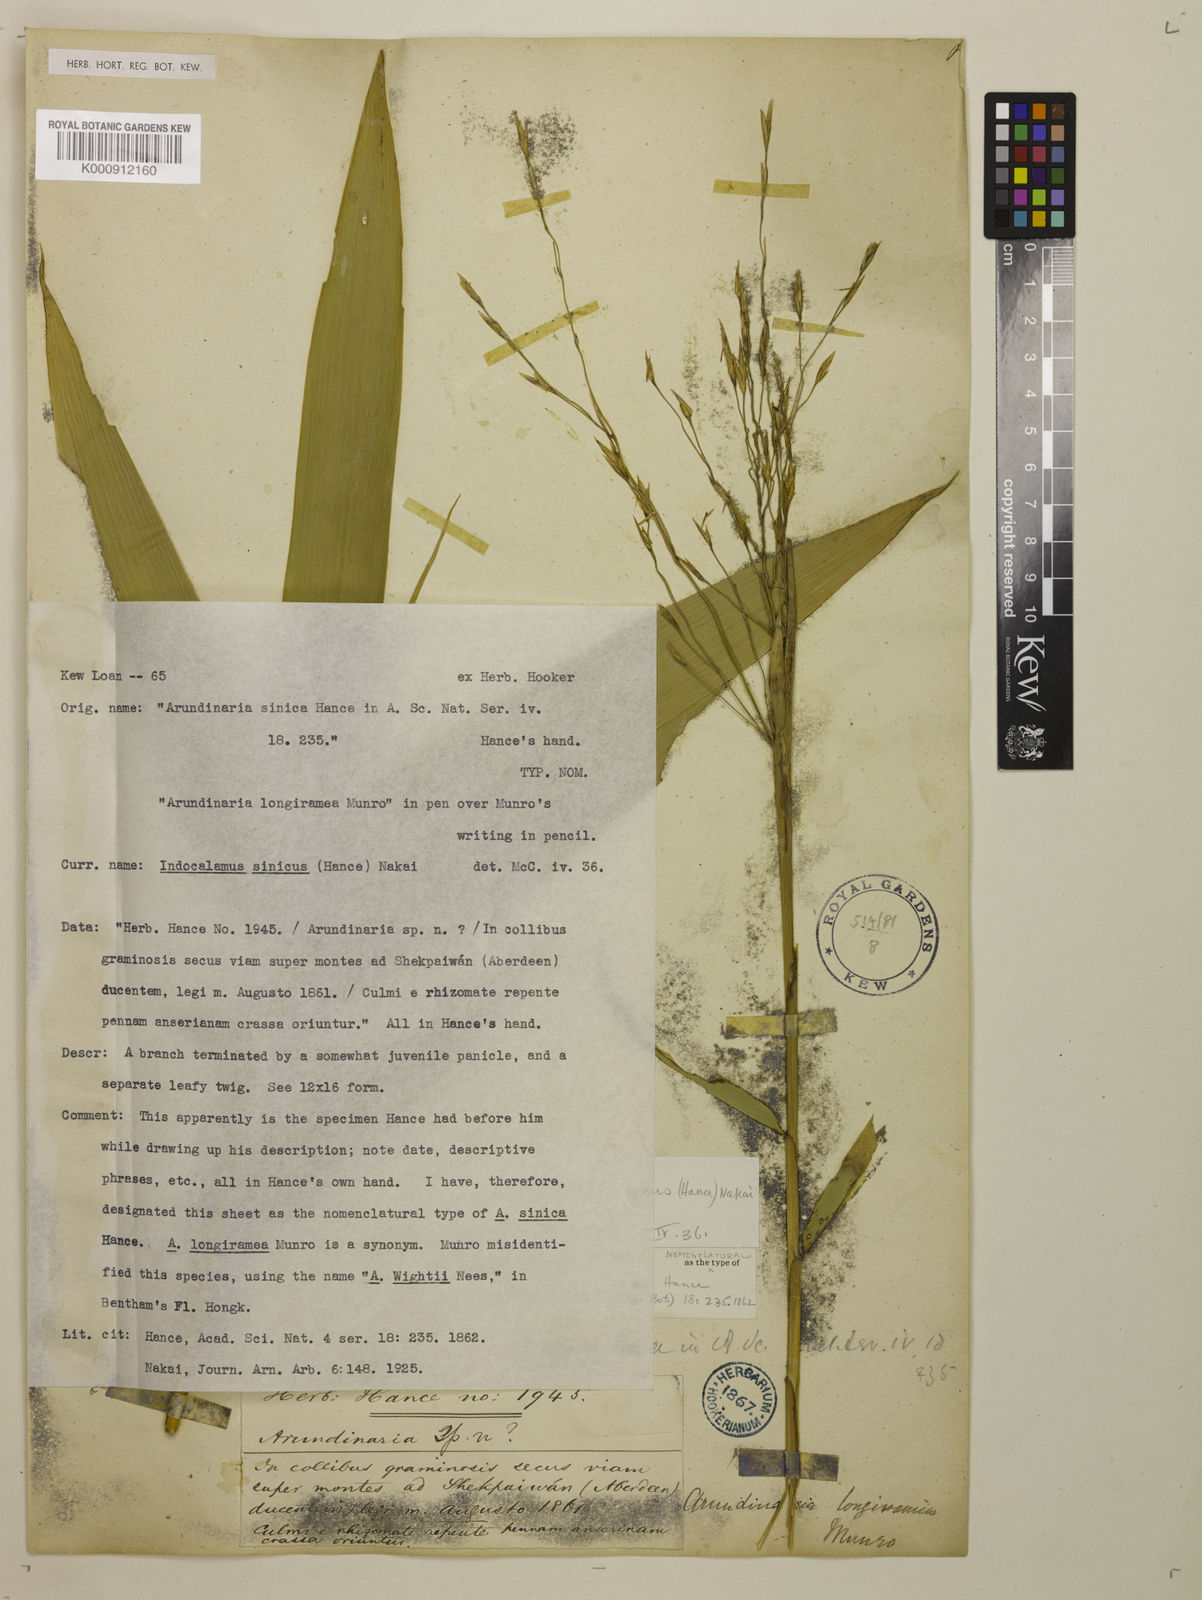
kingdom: Plantae
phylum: Tracheophyta
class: Liliopsida
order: Poales
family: Poaceae
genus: Indocalamus
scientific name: Indocalamus sinicus
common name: Chinese cane
